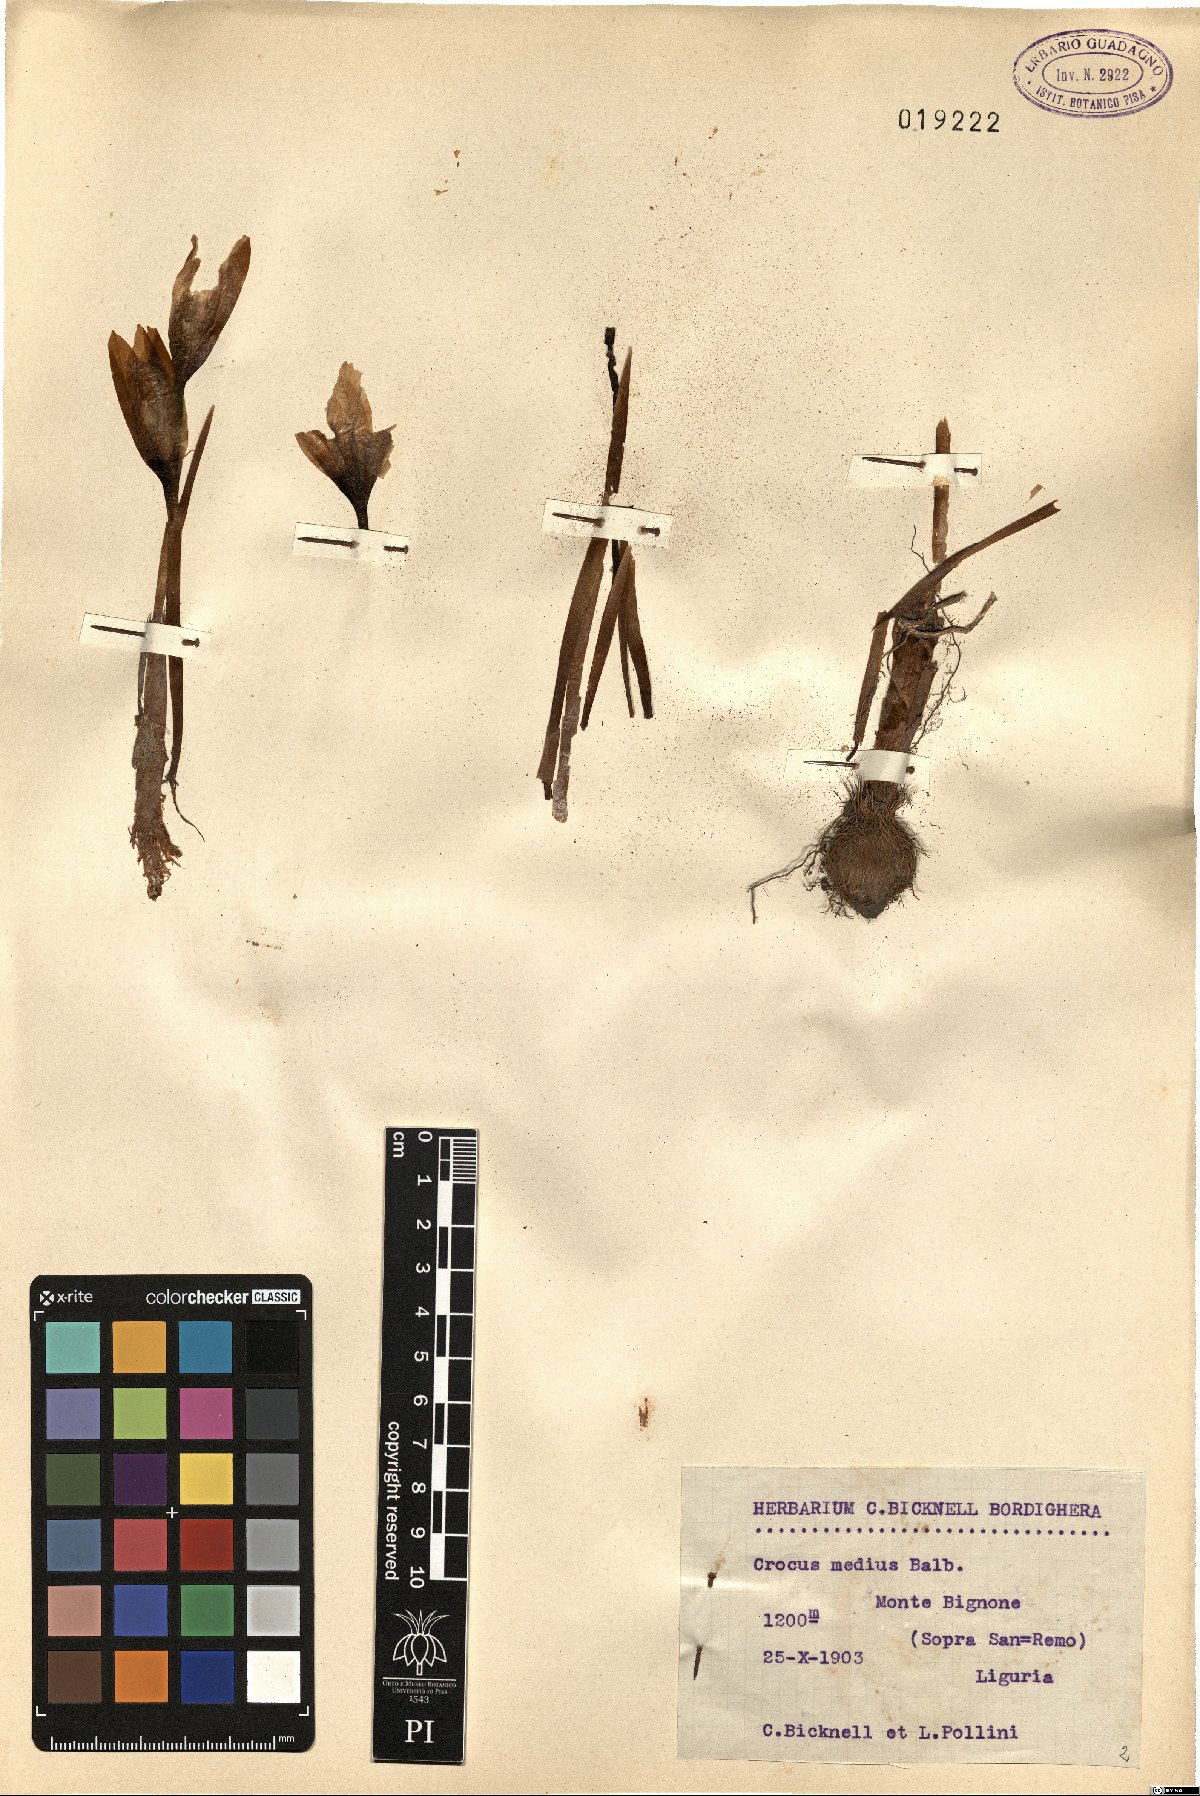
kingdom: Plantae
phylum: Tracheophyta
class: Liliopsida
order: Asparagales
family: Iridaceae
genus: Crocus
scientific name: Crocus nudiflorus
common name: Autumn crocus
